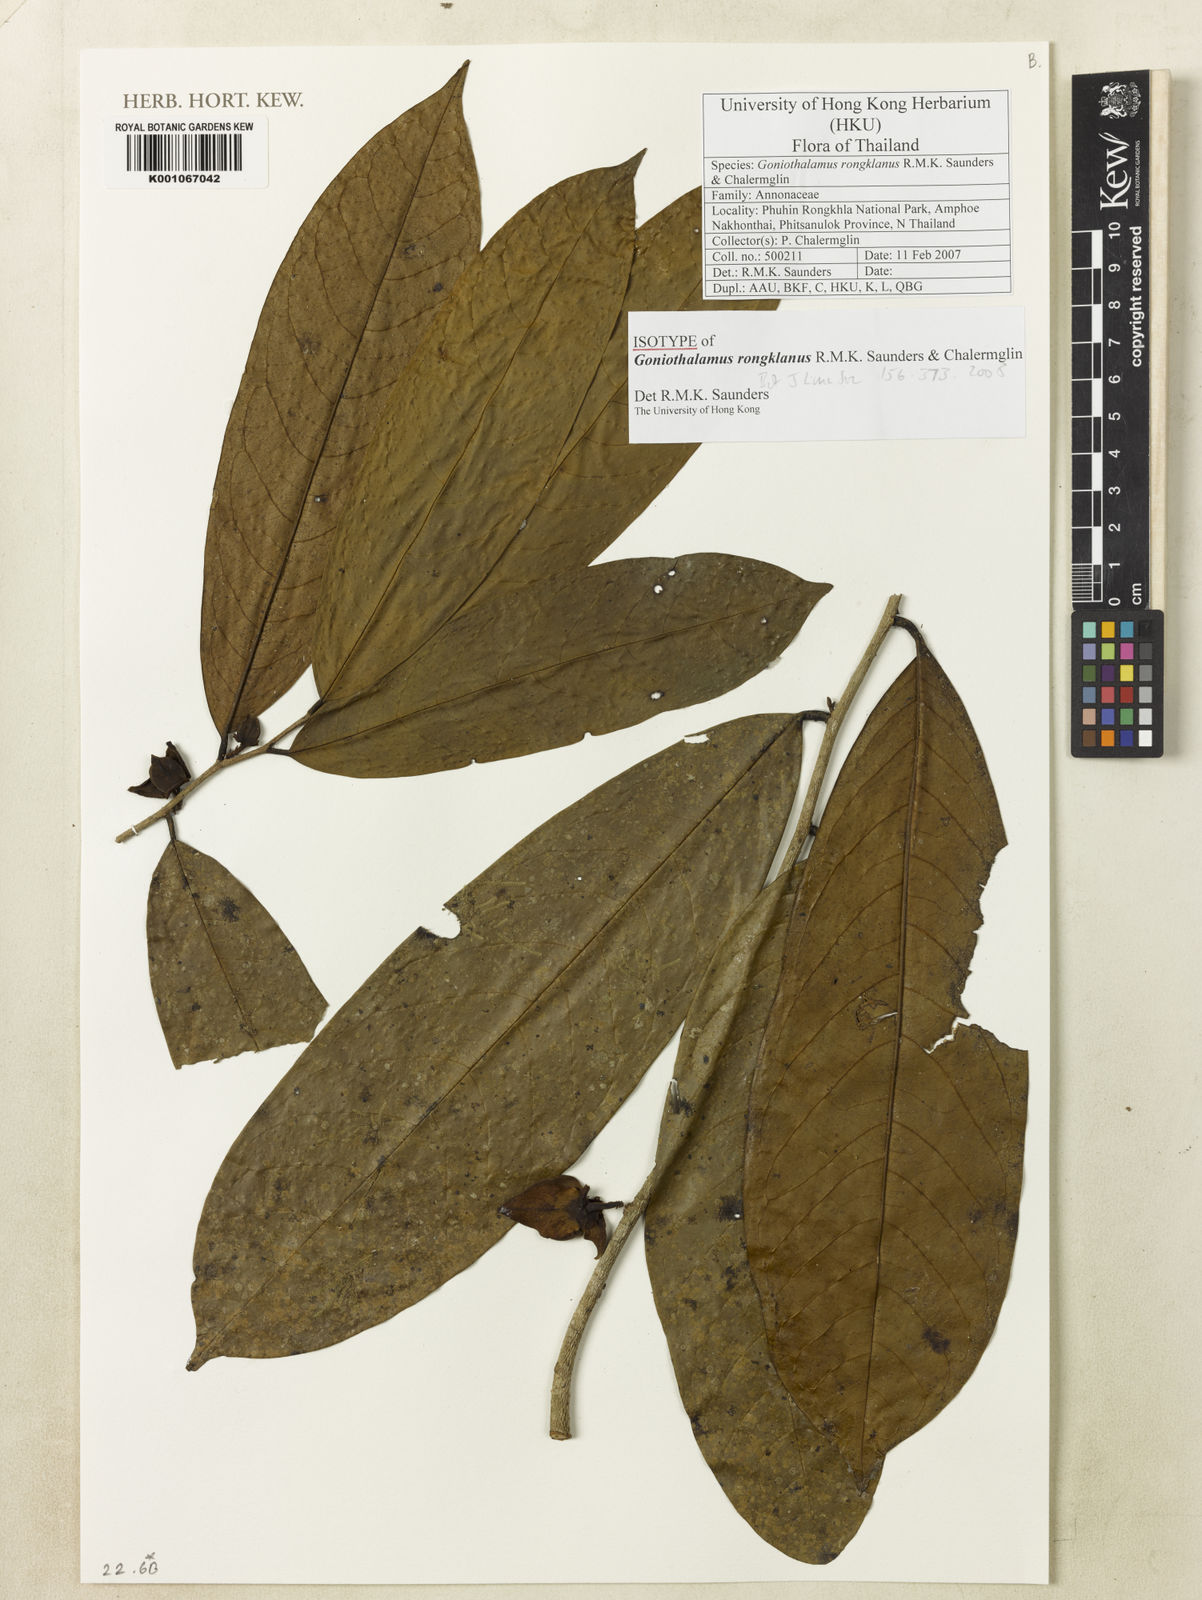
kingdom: Plantae
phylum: Tracheophyta
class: Magnoliopsida
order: Magnoliales
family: Annonaceae
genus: Goniothalamus
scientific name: Goniothalamus rongklanus
